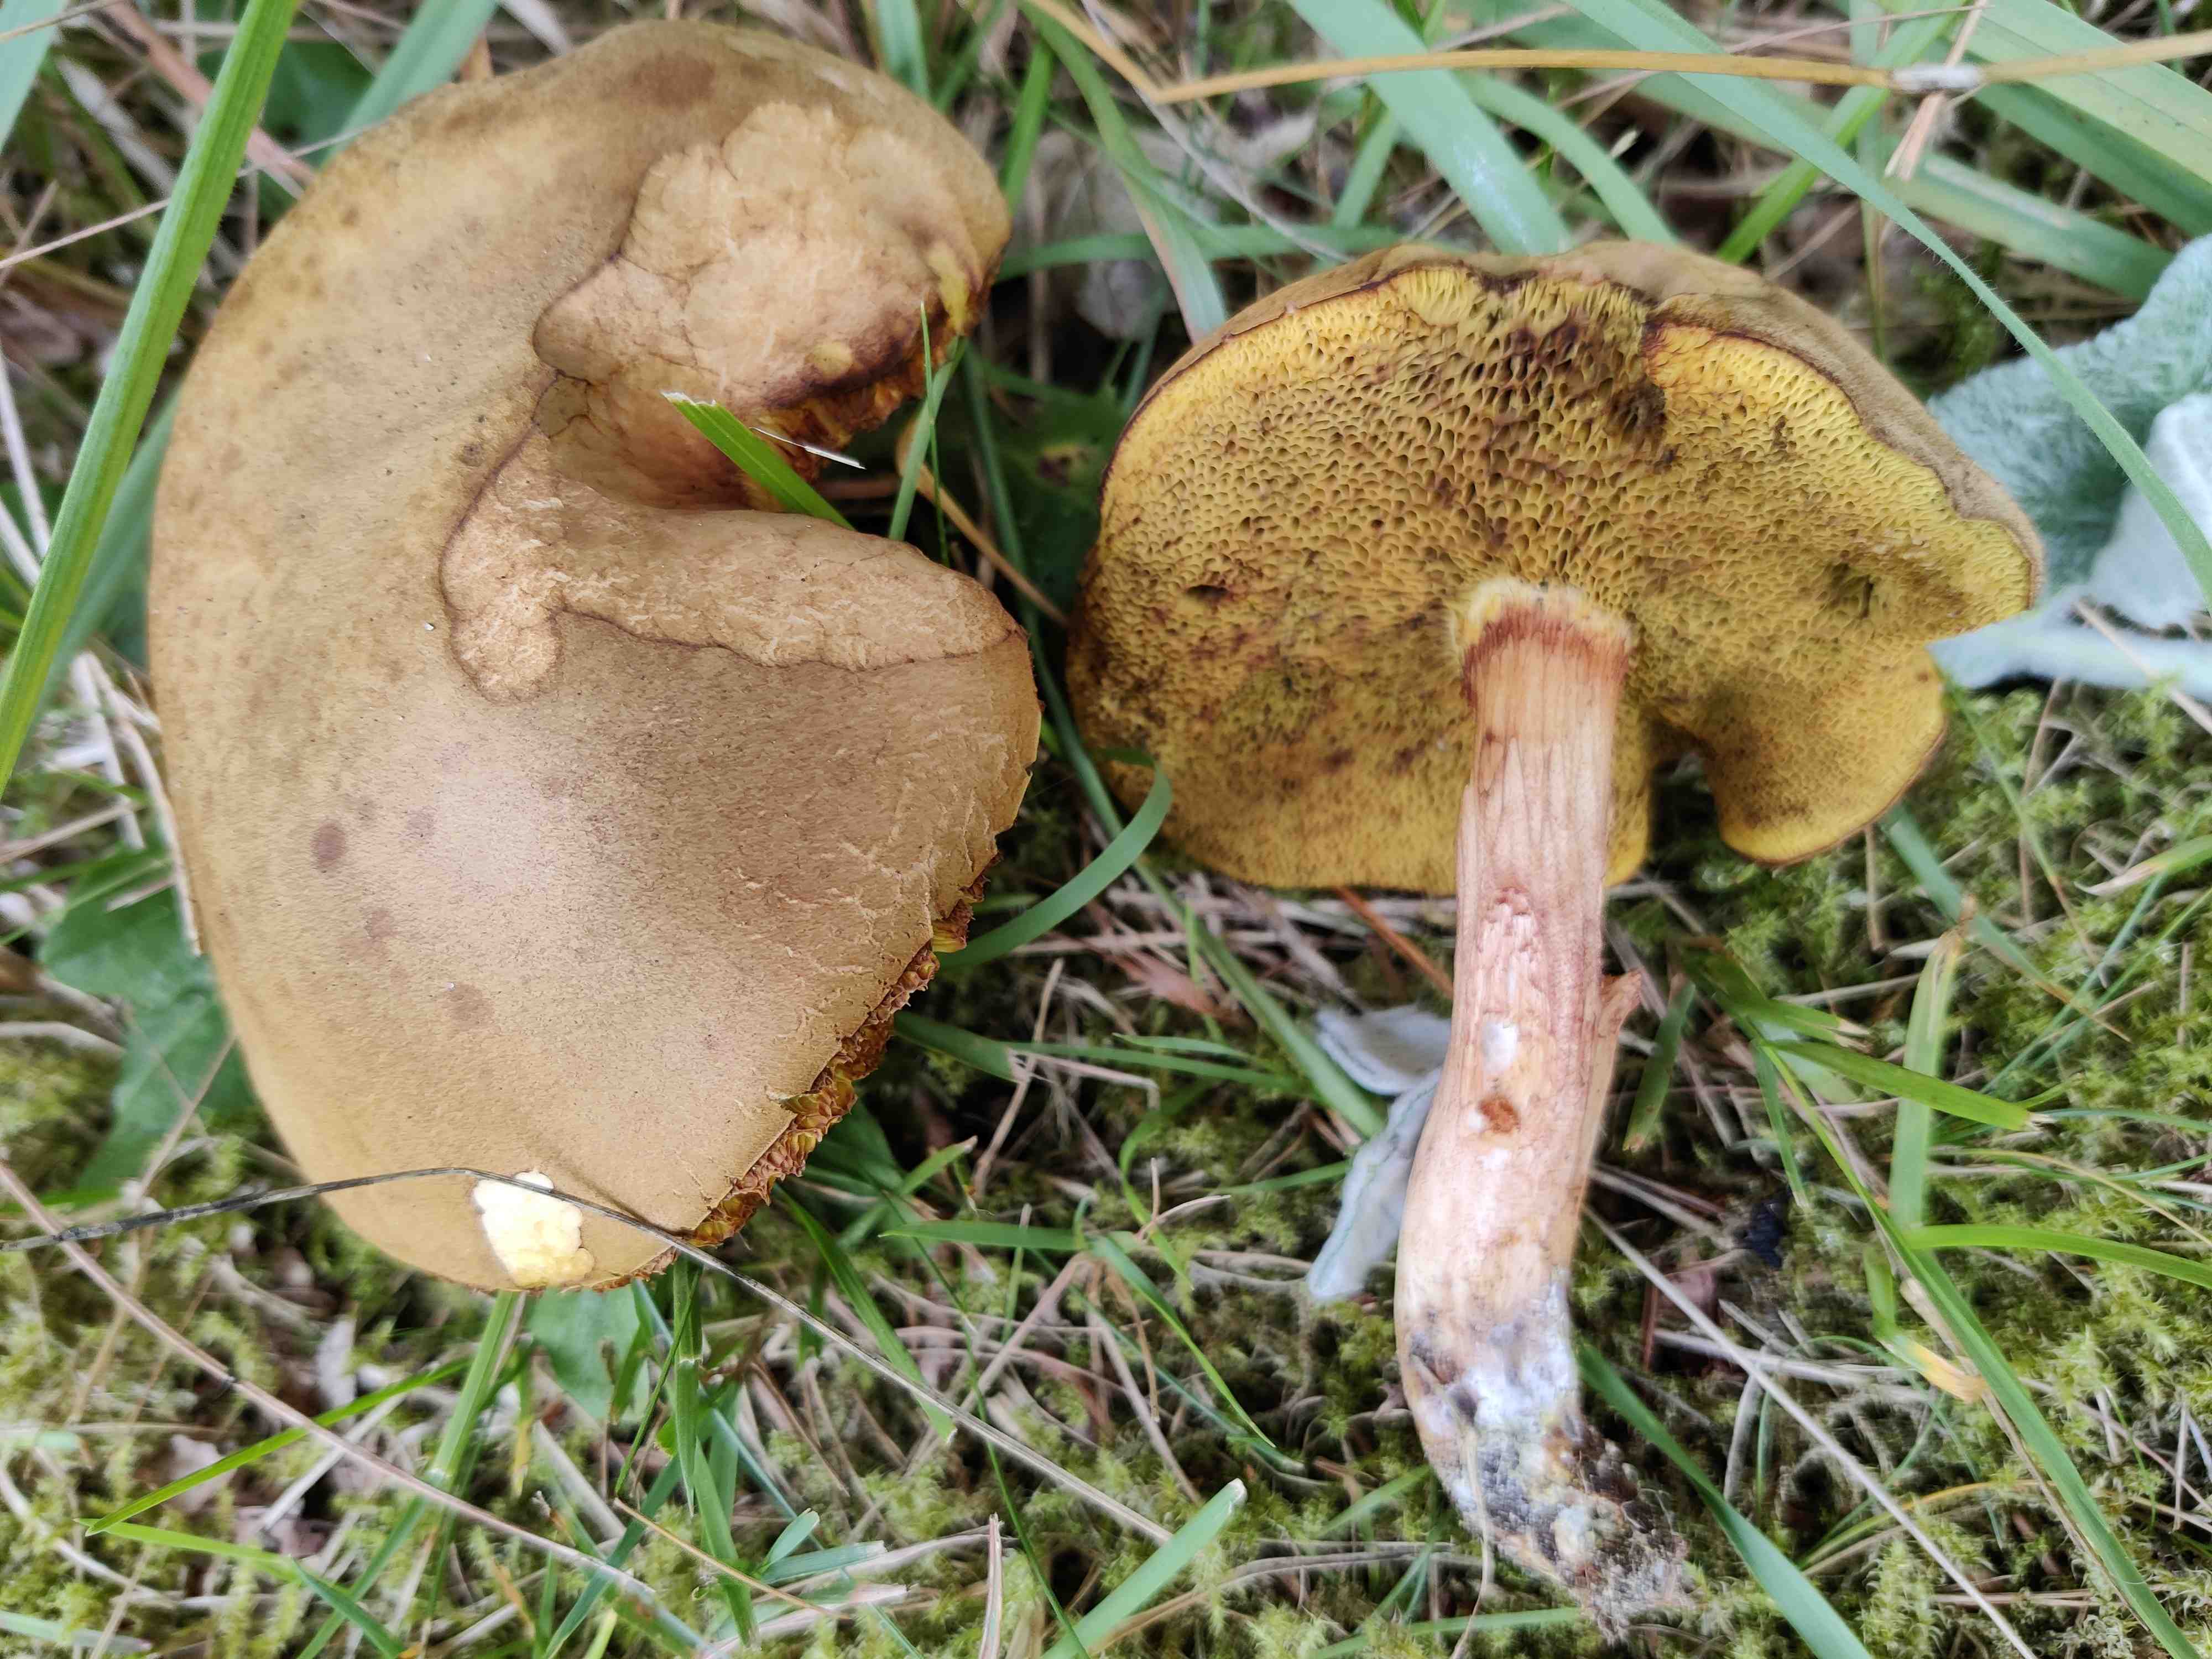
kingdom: Fungi
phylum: Basidiomycota
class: Agaricomycetes
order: Boletales
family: Boletaceae
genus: Xerocomus
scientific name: Xerocomus ferrugineus
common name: vaskeskinds-rørhat
